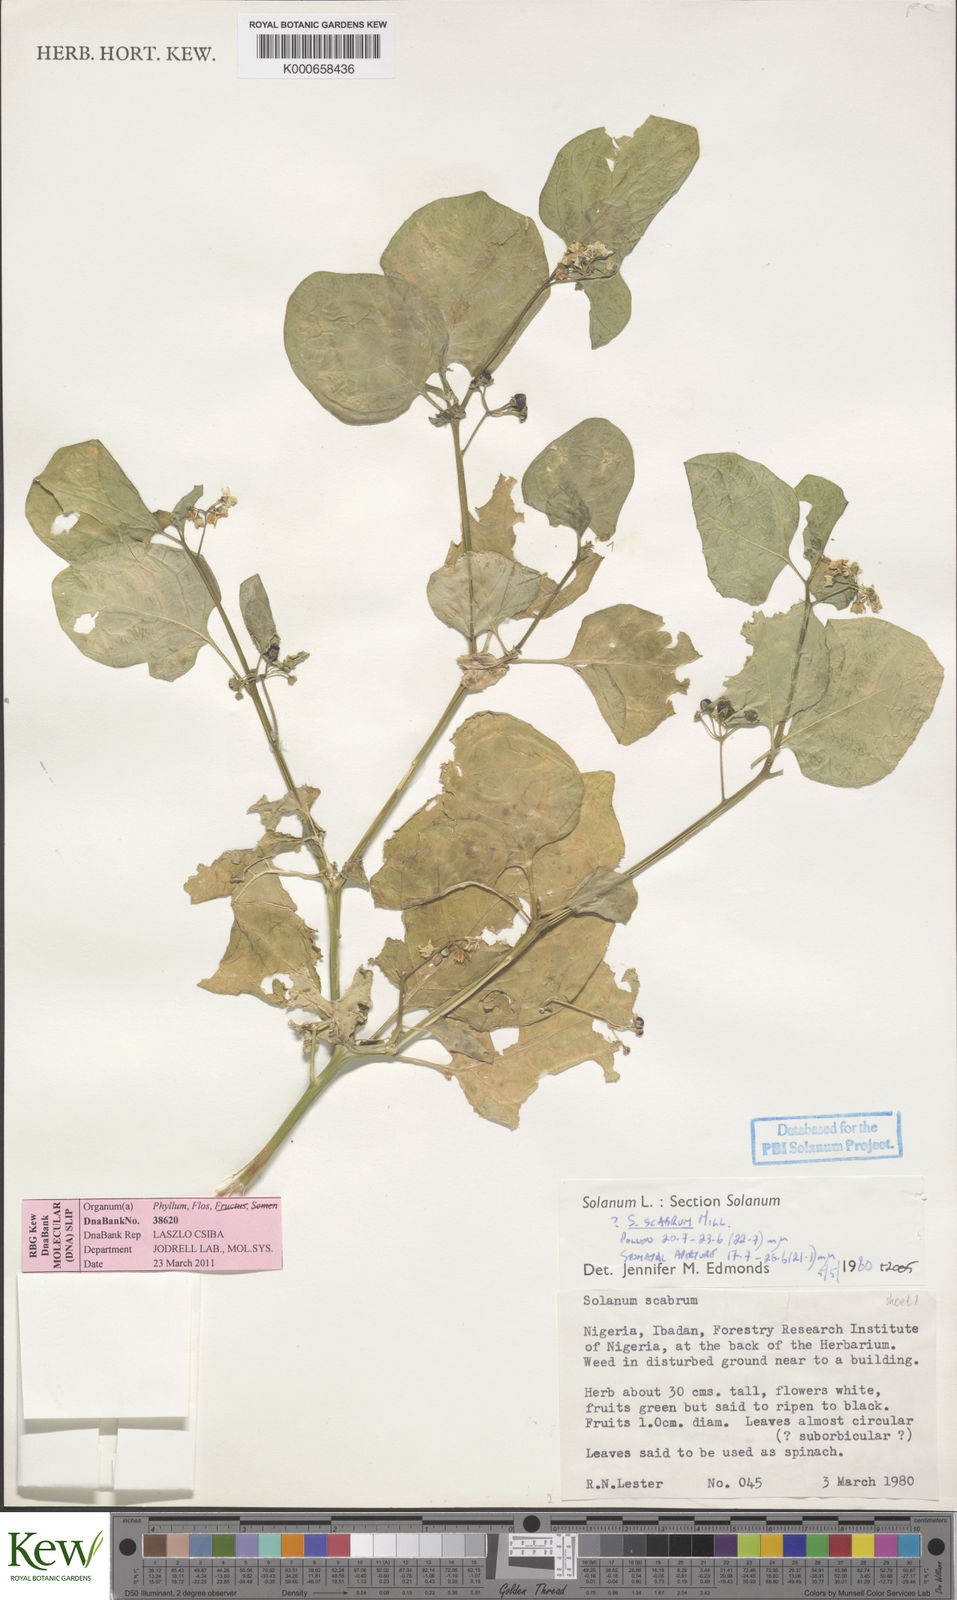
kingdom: Plantae
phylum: Tracheophyta
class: Magnoliopsida
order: Solanales
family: Solanaceae
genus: Solanum
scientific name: Solanum scabrum
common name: Garden-huckleberry
